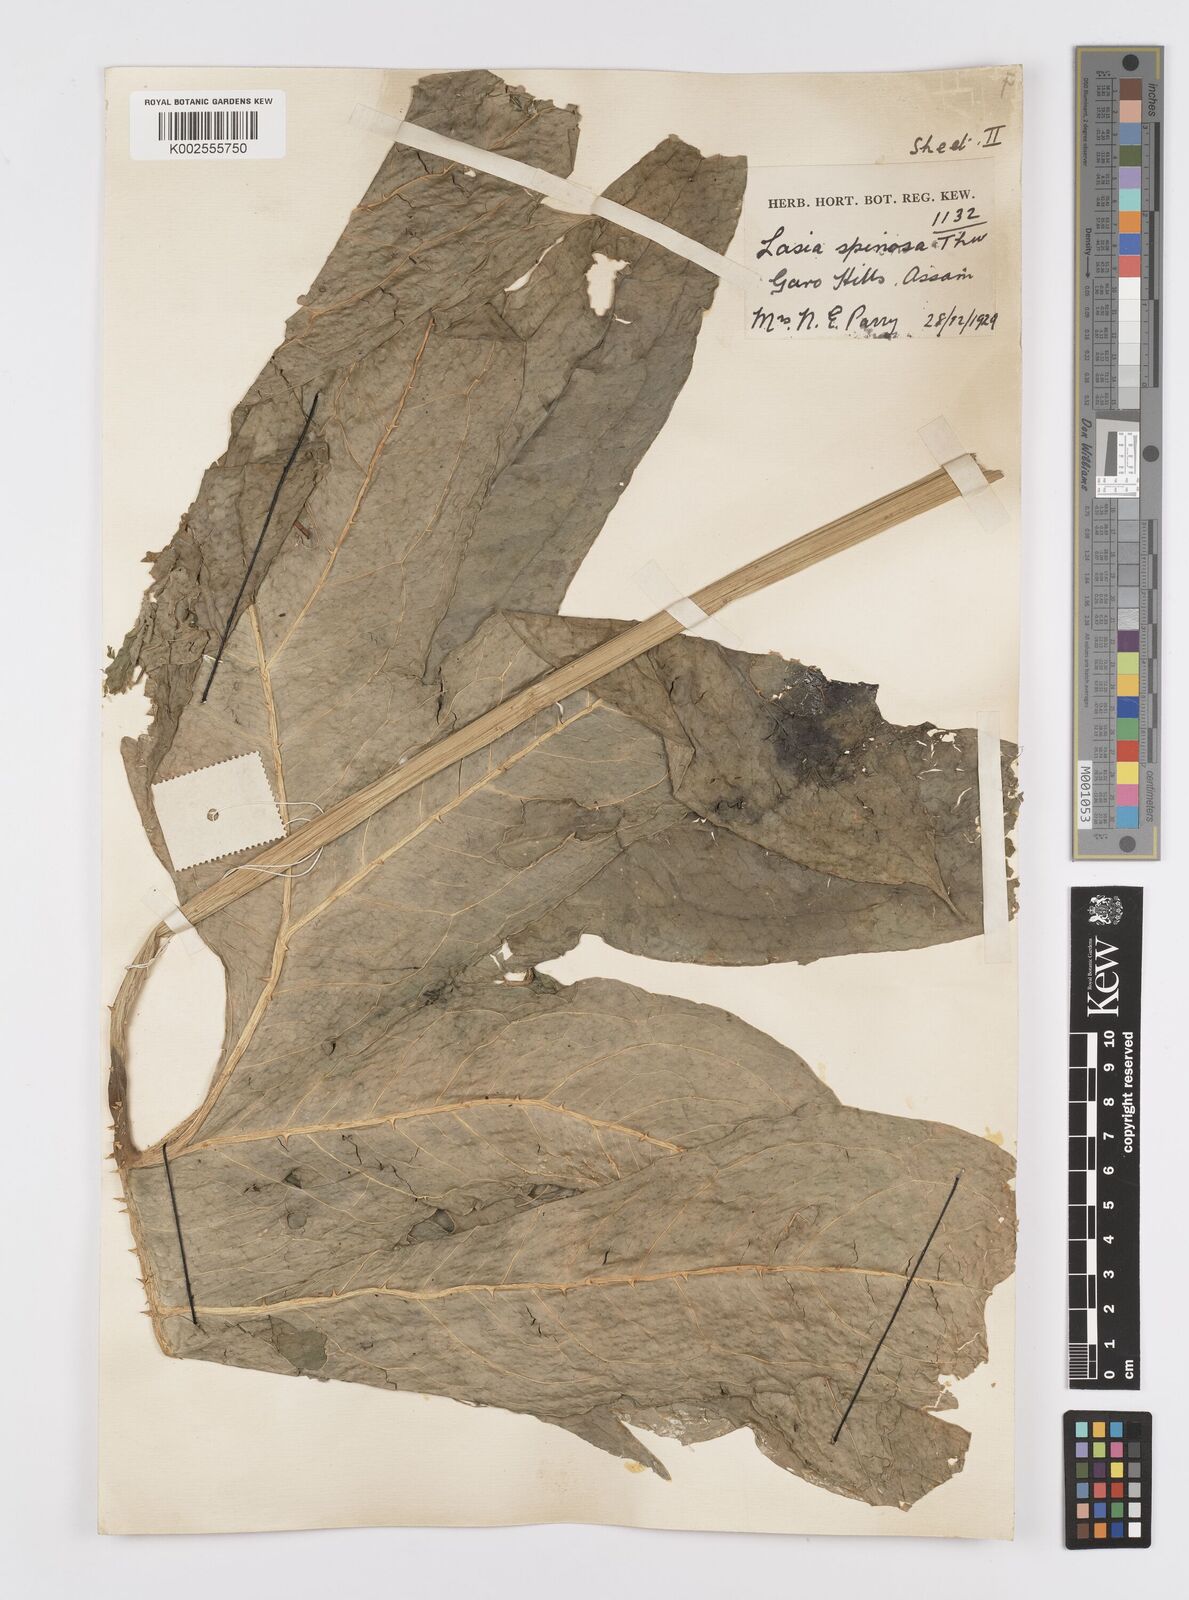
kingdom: Plantae
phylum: Tracheophyta
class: Liliopsida
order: Alismatales
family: Araceae
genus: Lasia
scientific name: Lasia spinosa
